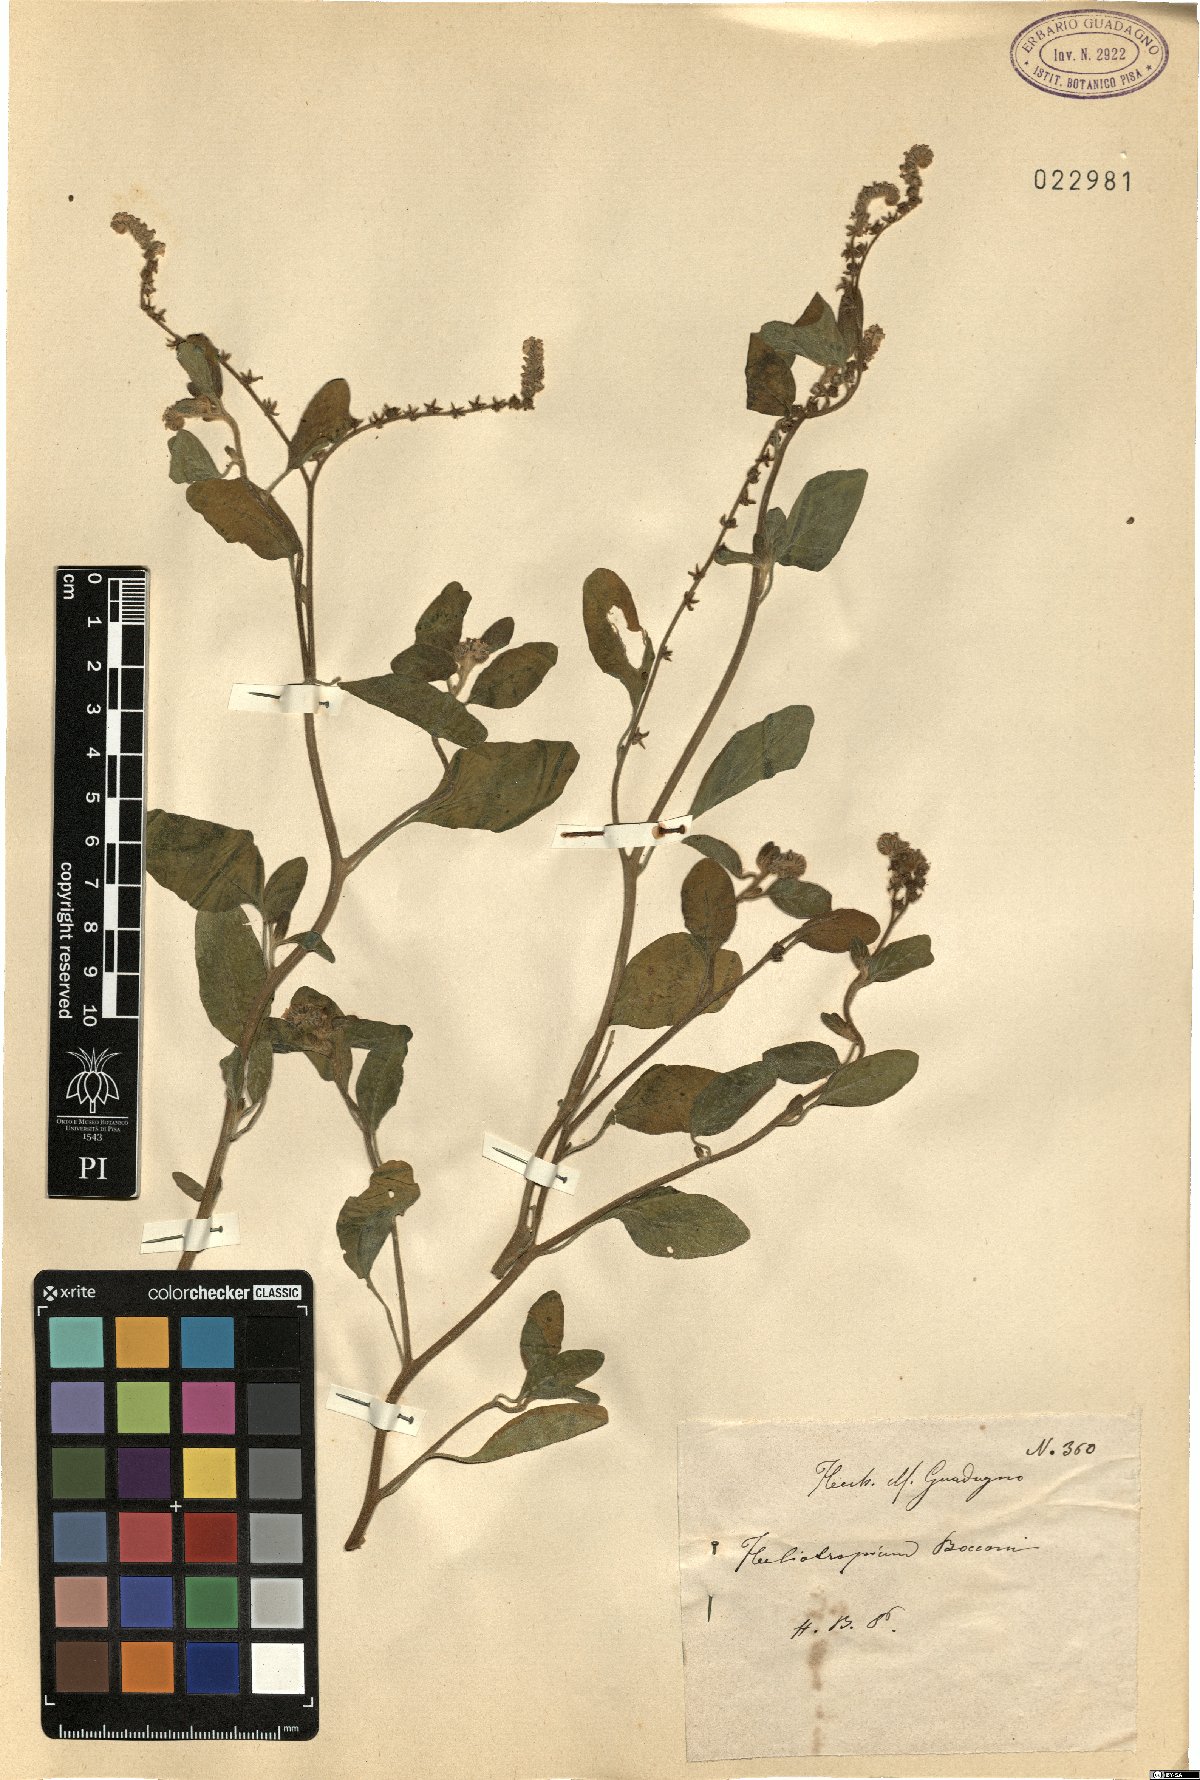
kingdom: Plantae
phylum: Tracheophyta
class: Magnoliopsida
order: Boraginales
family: Heliotropiaceae
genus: Heliotropium
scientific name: Heliotropium suaveolens
